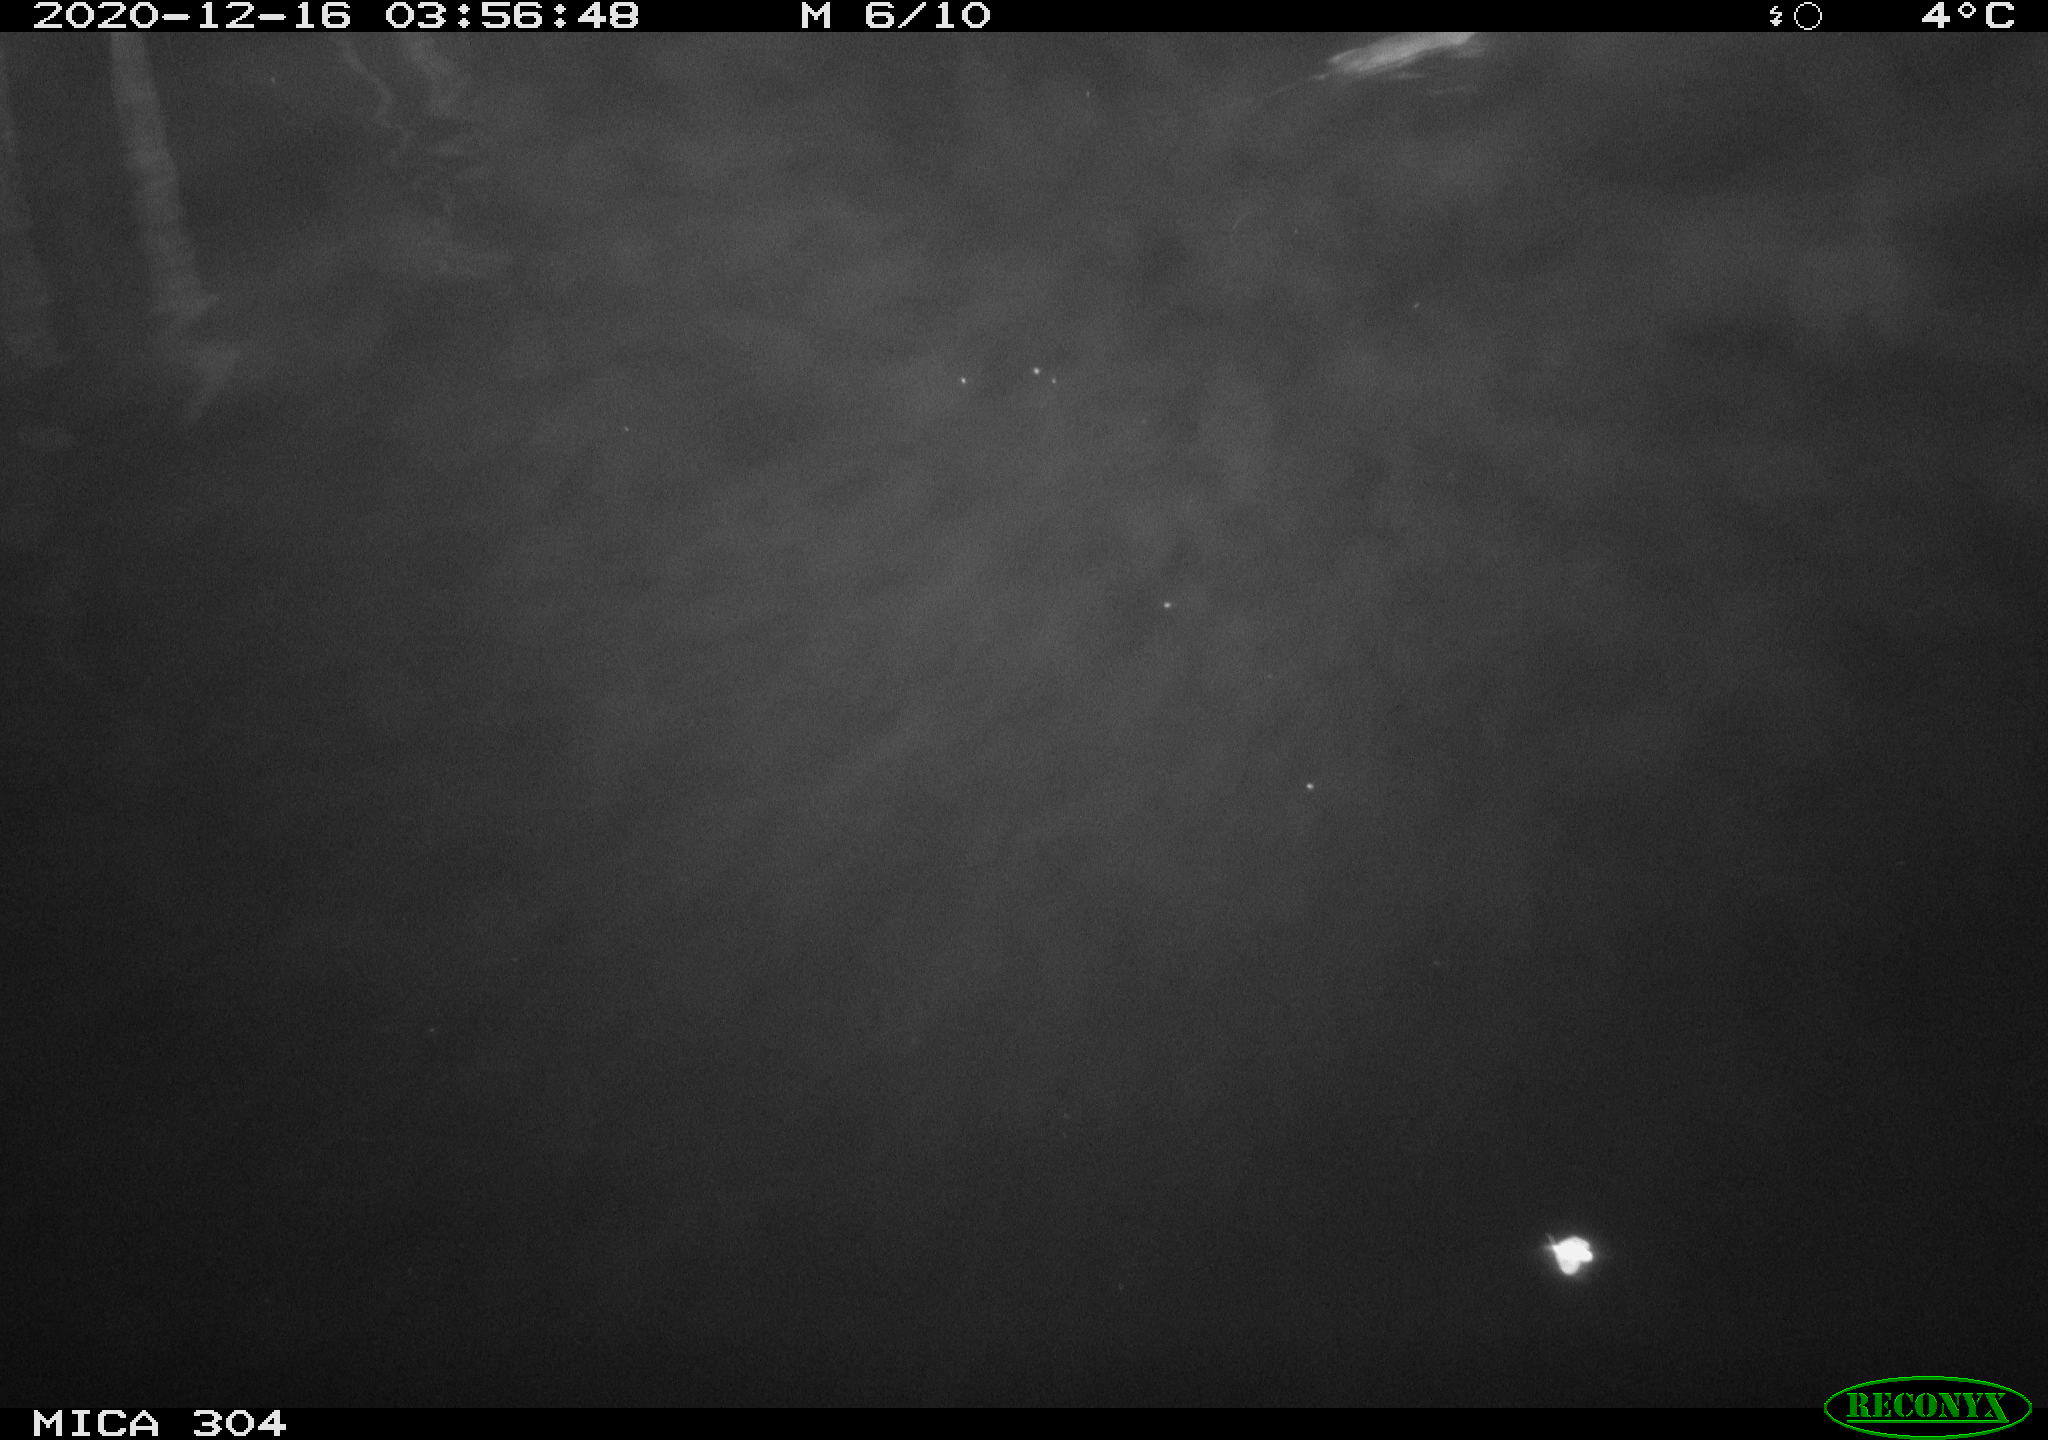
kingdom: Animalia
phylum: Chordata
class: Mammalia
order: Rodentia
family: Muridae
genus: Rattus
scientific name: Rattus norvegicus
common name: Brown rat
